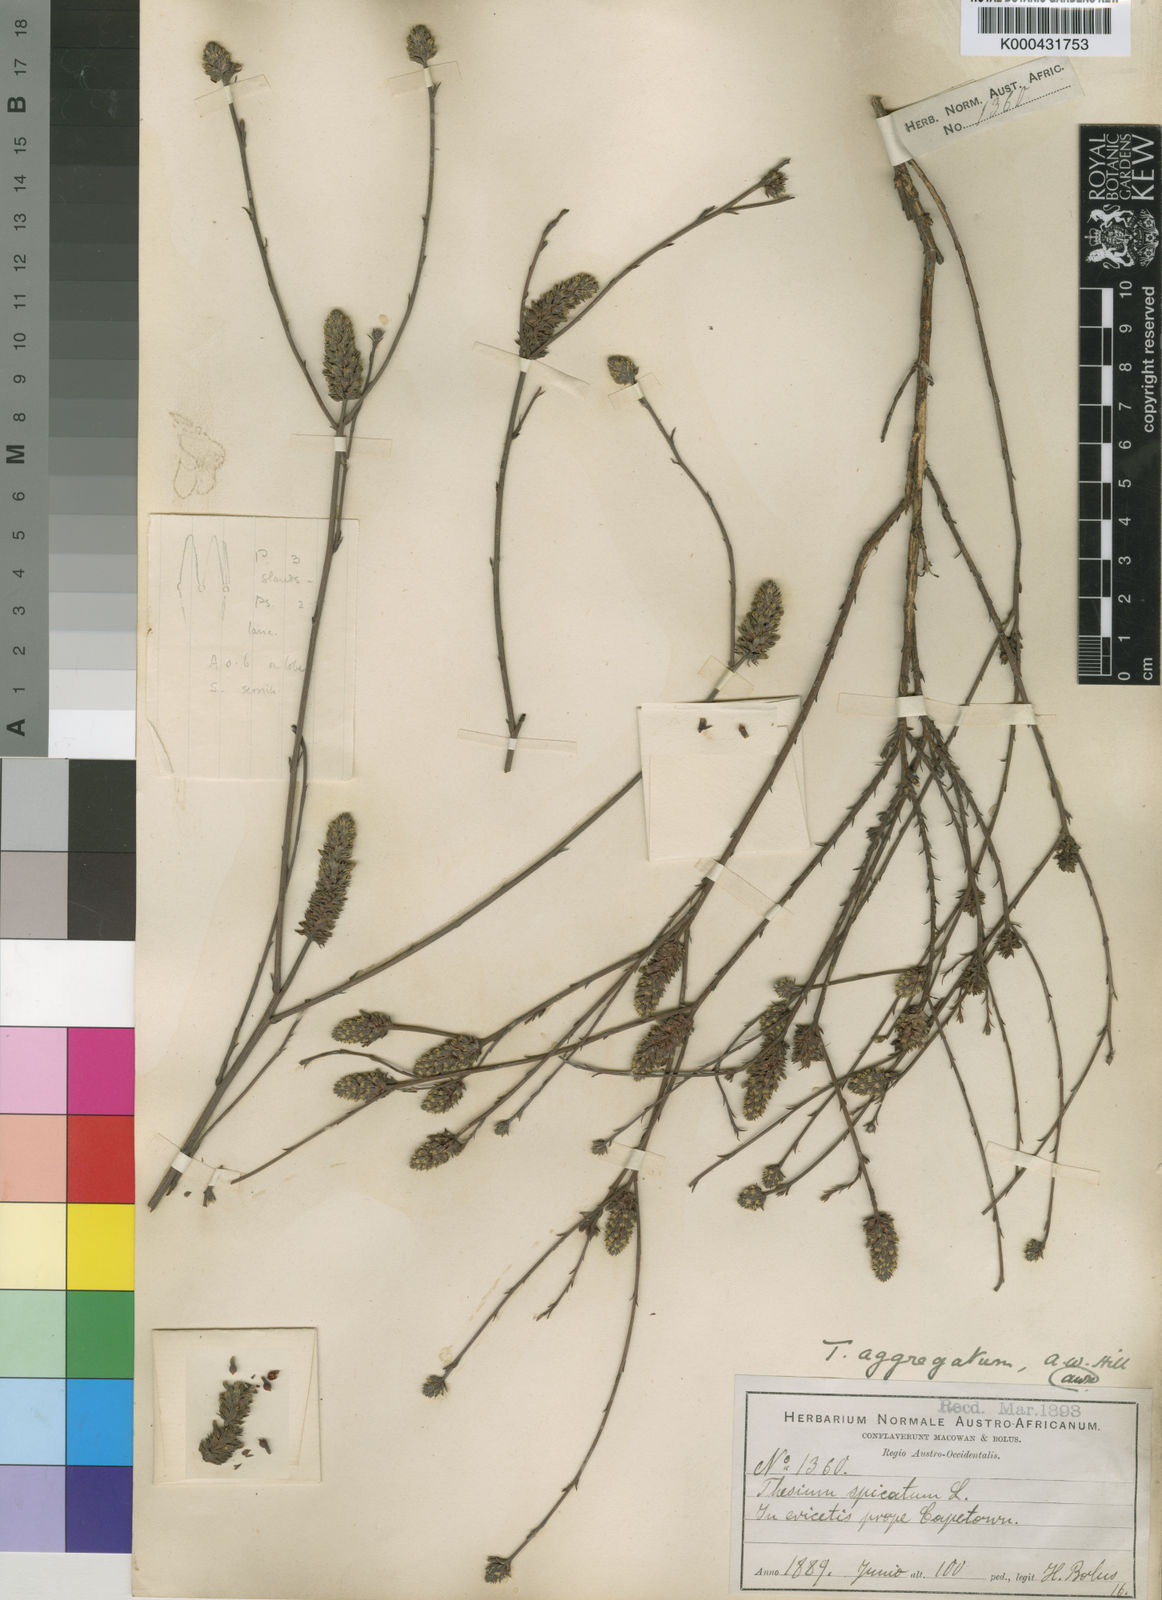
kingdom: Plantae
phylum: Tracheophyta
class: Magnoliopsida
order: Santalales
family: Thesiaceae
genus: Thesium
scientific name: Thesium aggregatum
